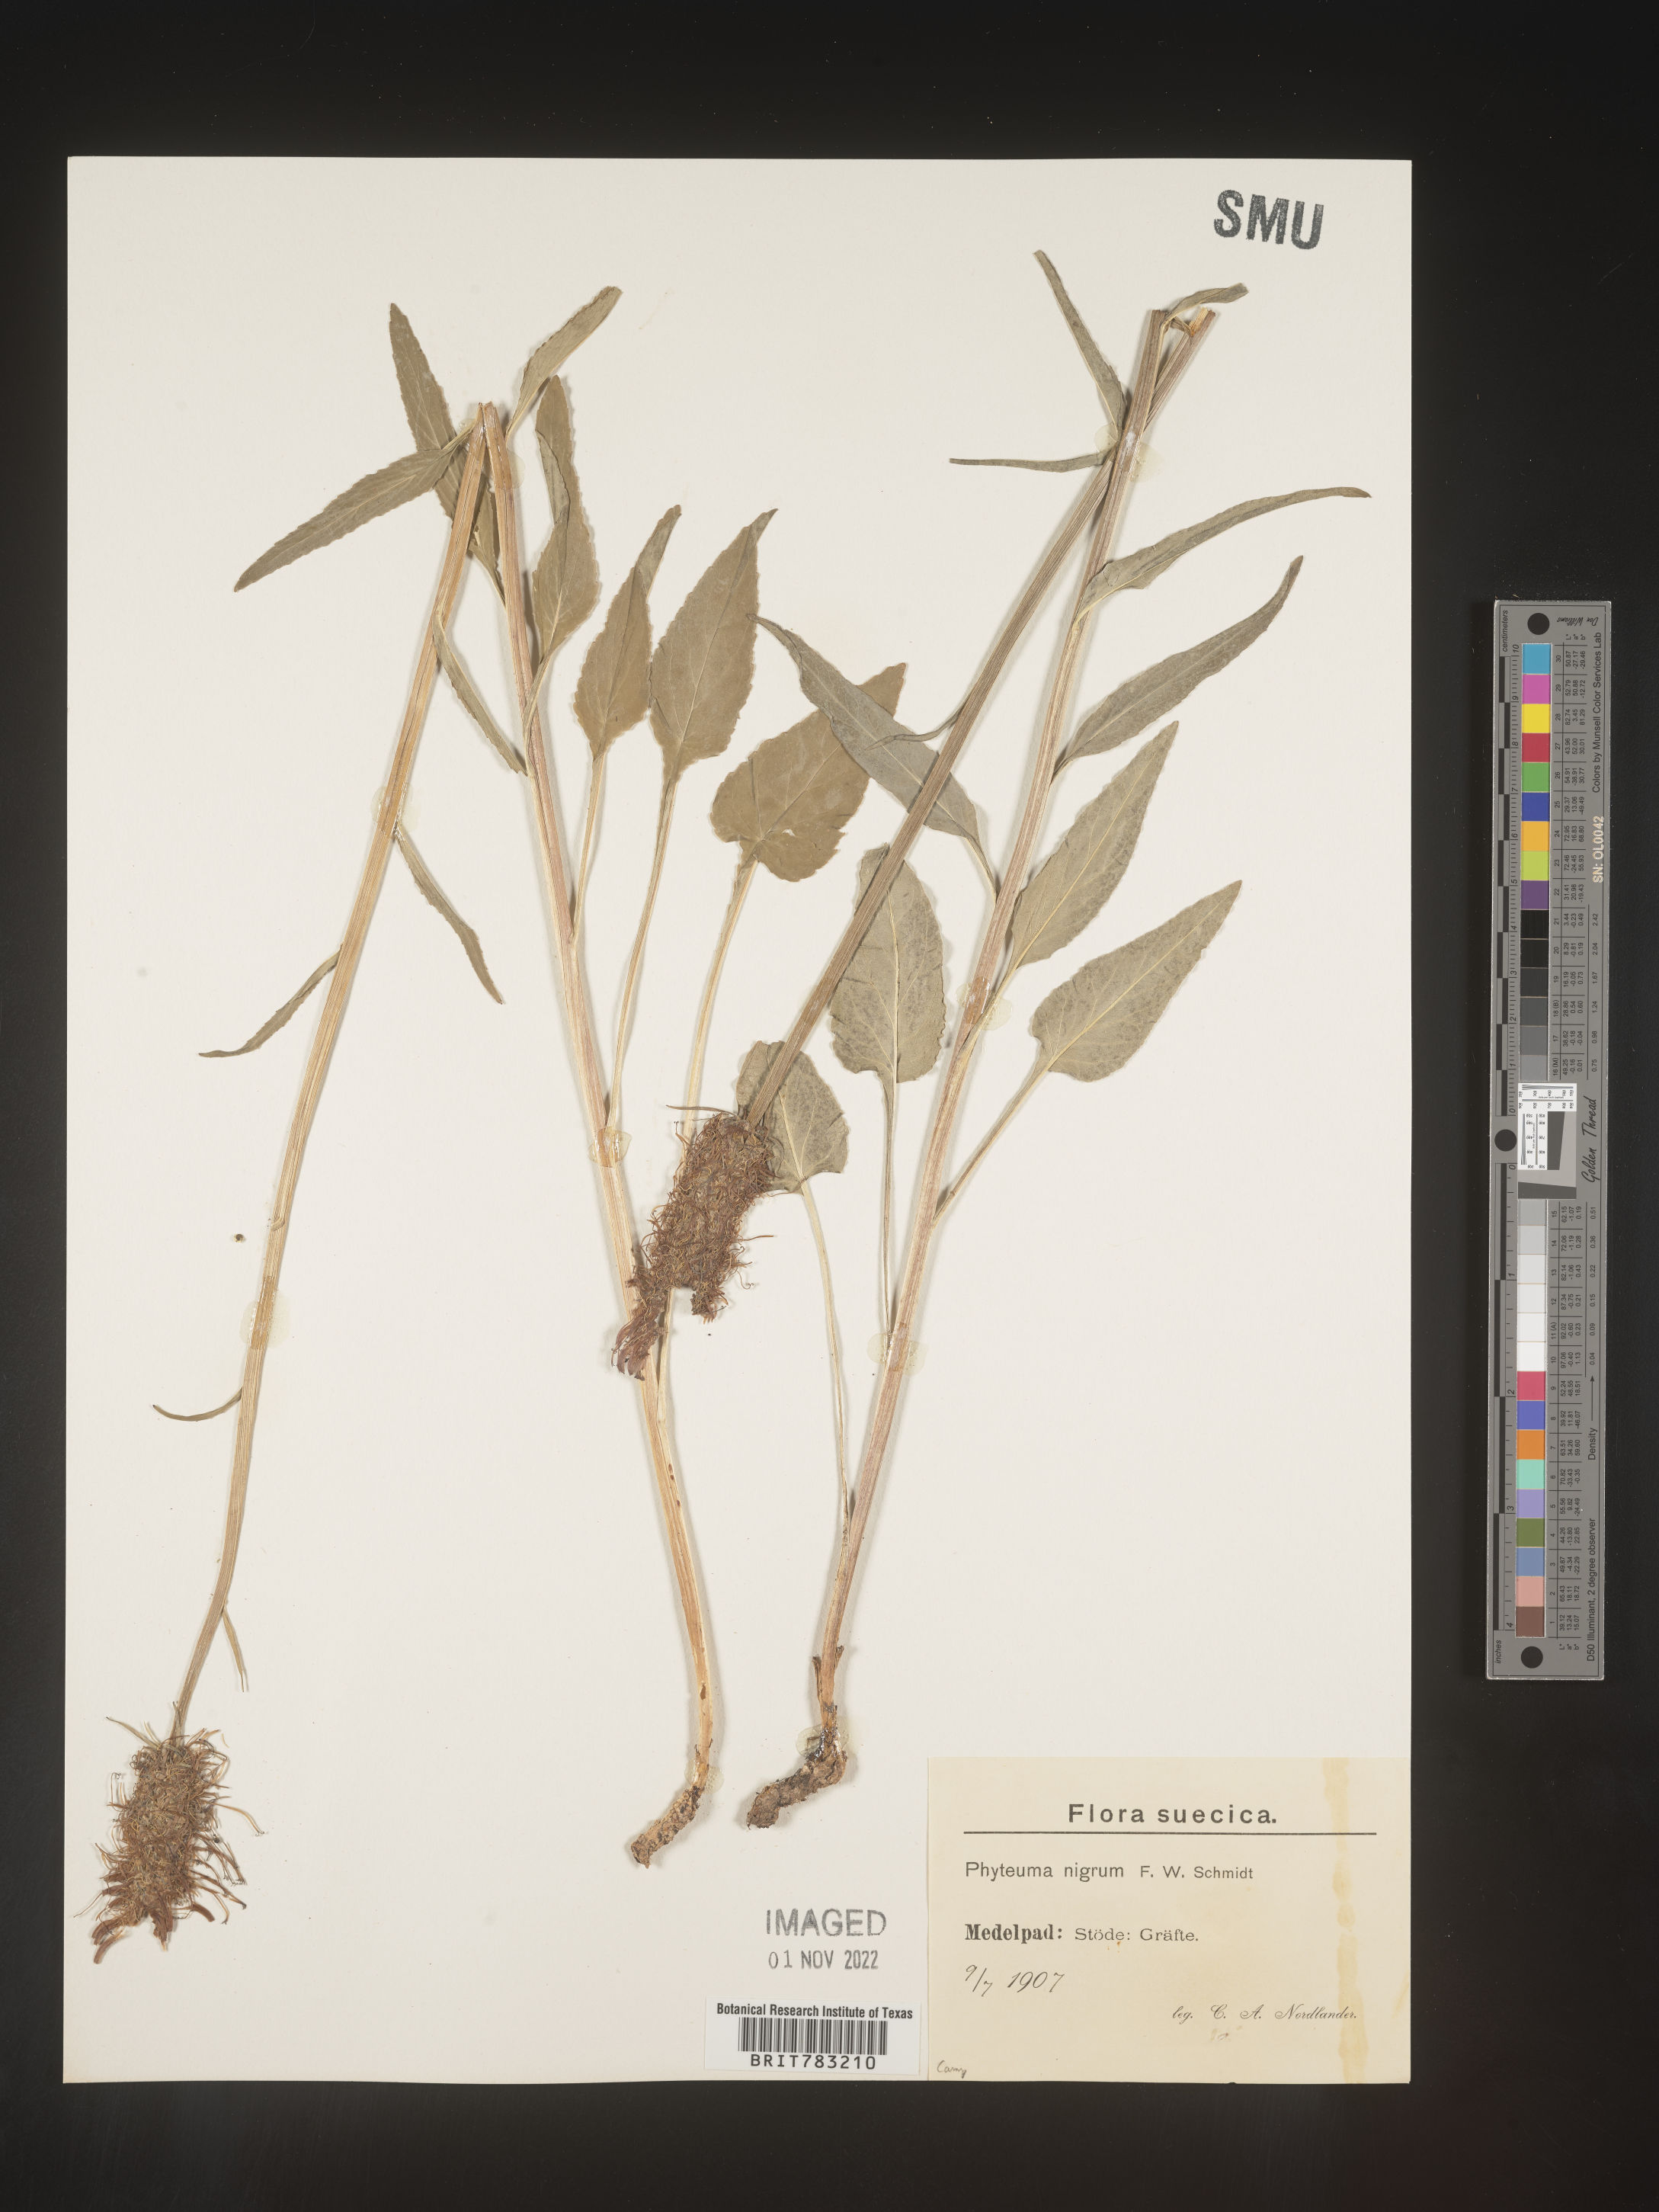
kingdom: Plantae
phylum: Tracheophyta
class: Magnoliopsida
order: Asterales
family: Campanulaceae
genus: Phyteuma
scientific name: Phyteuma
